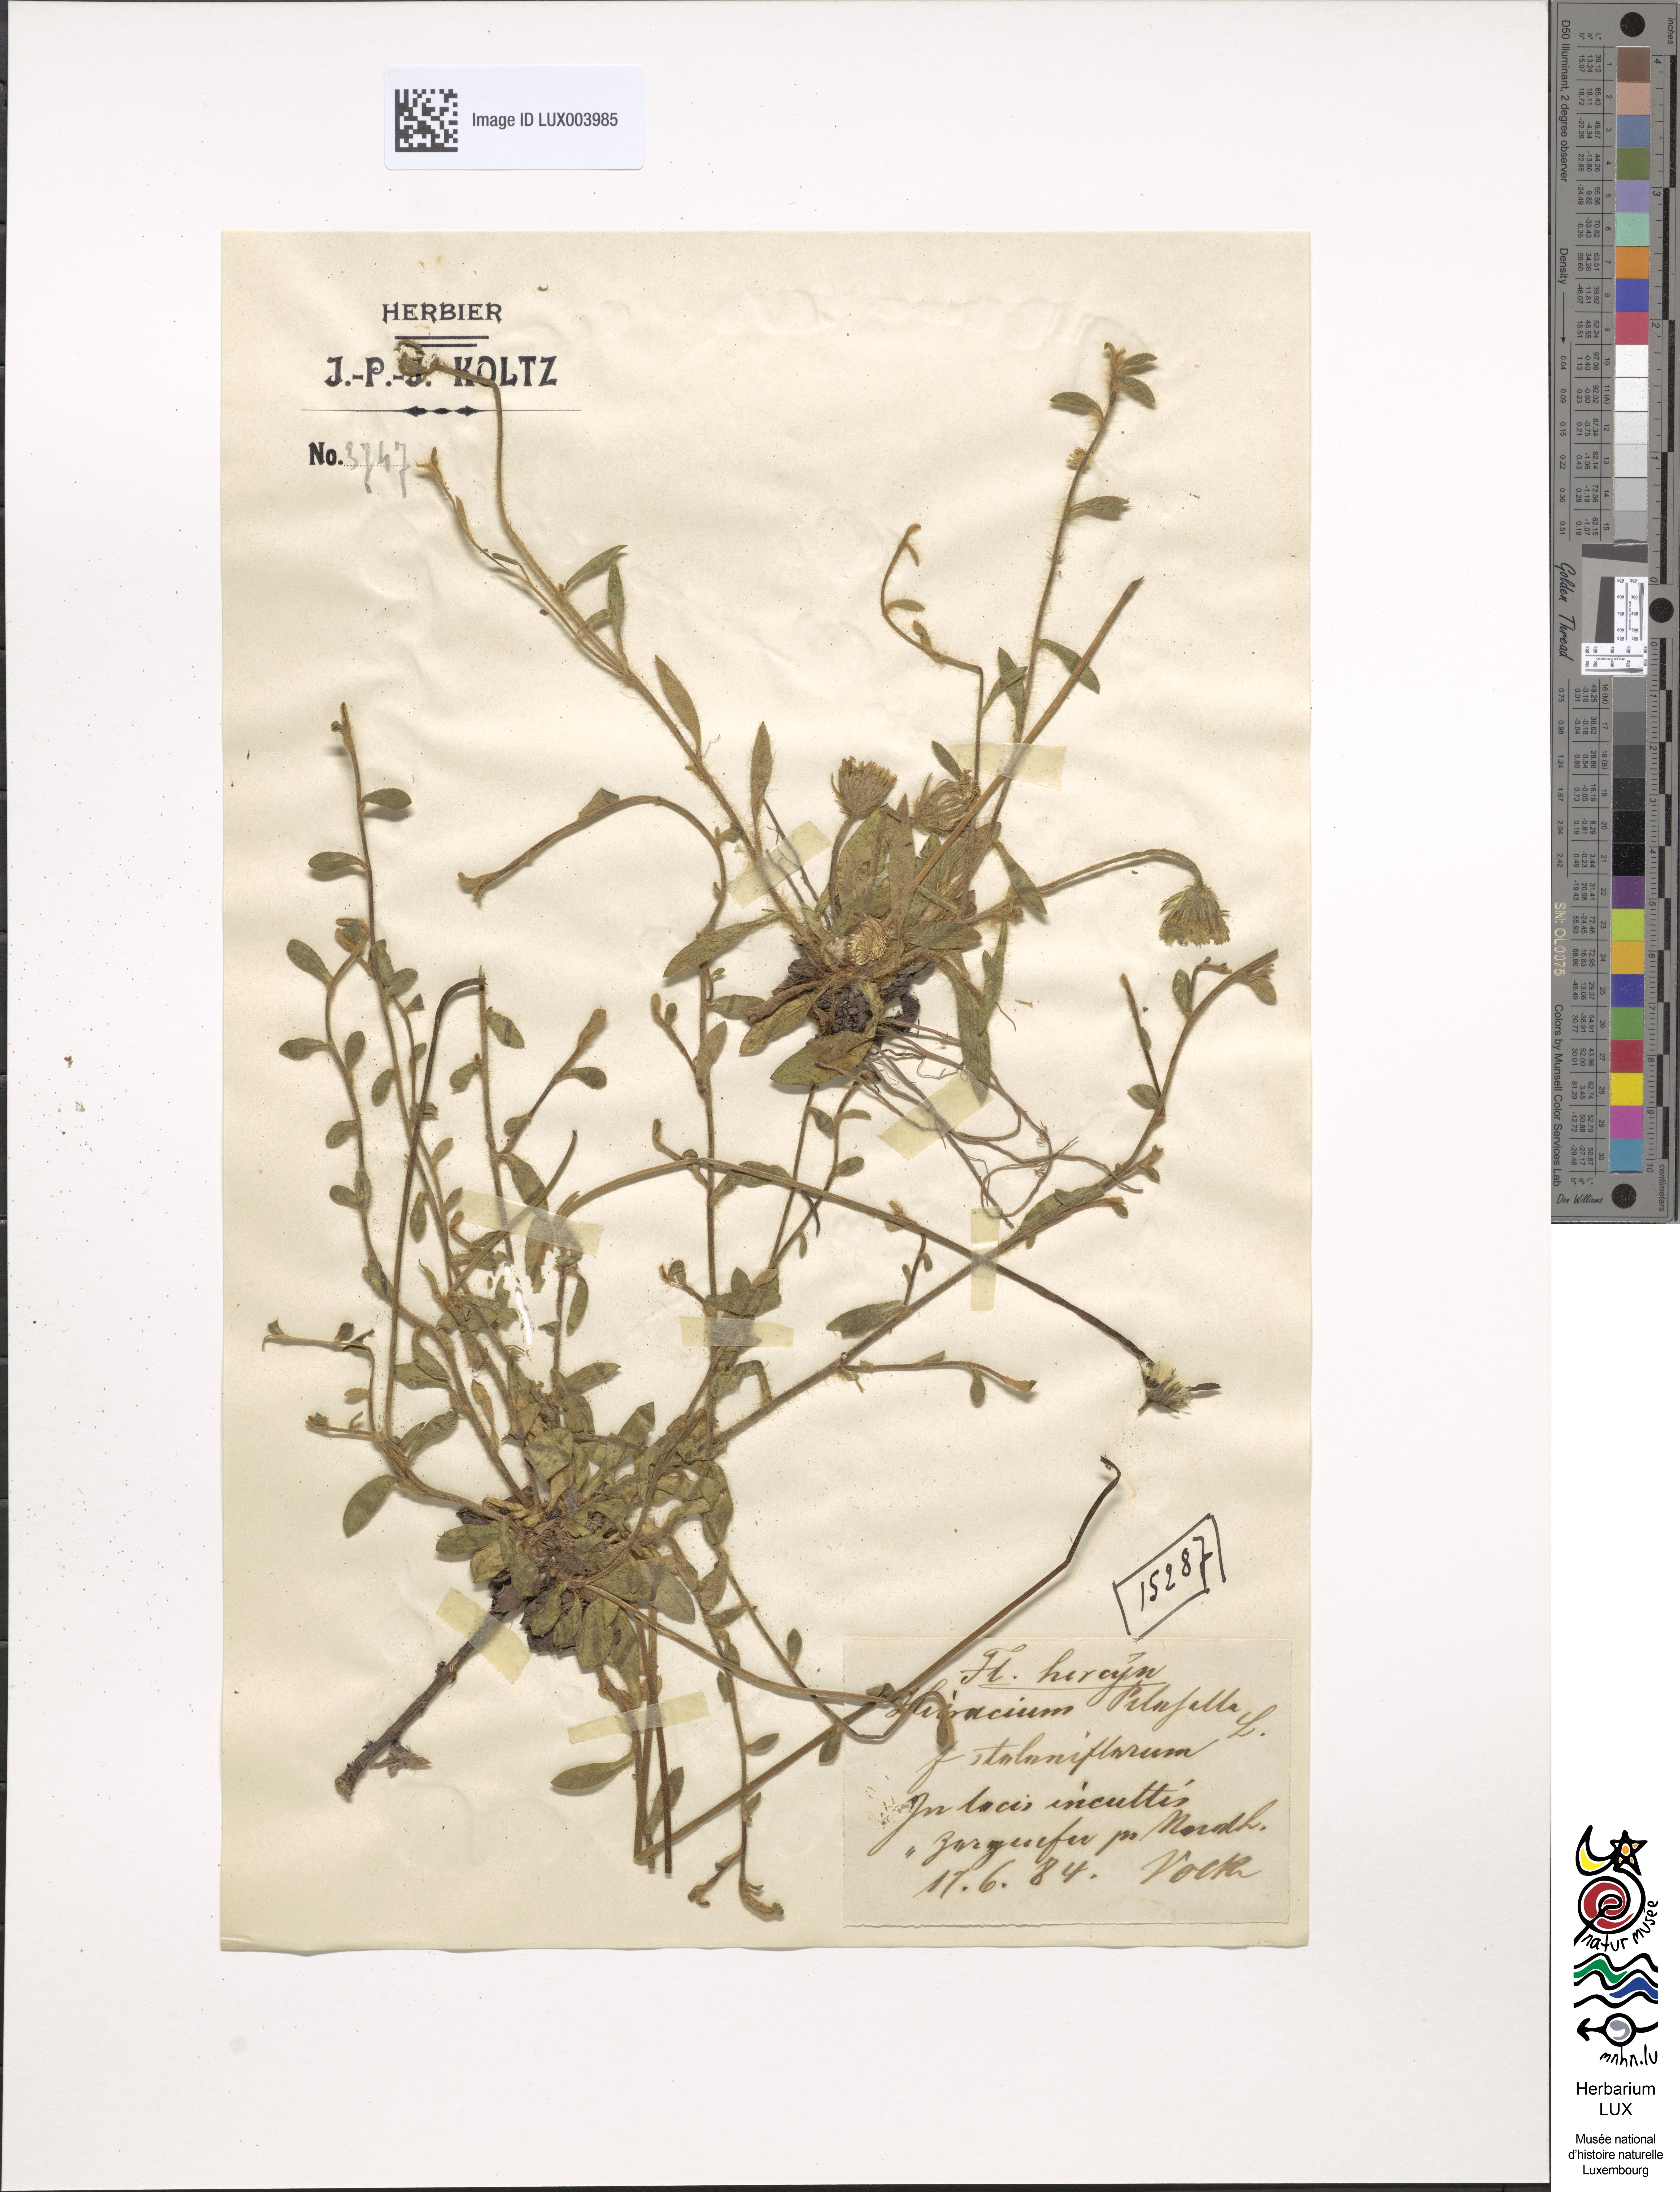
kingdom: Plantae
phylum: Tracheophyta
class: Magnoliopsida
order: Asterales
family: Asteraceae
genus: Pilosella
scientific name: Pilosella officinarum
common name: Mouse-ear hawkweed
